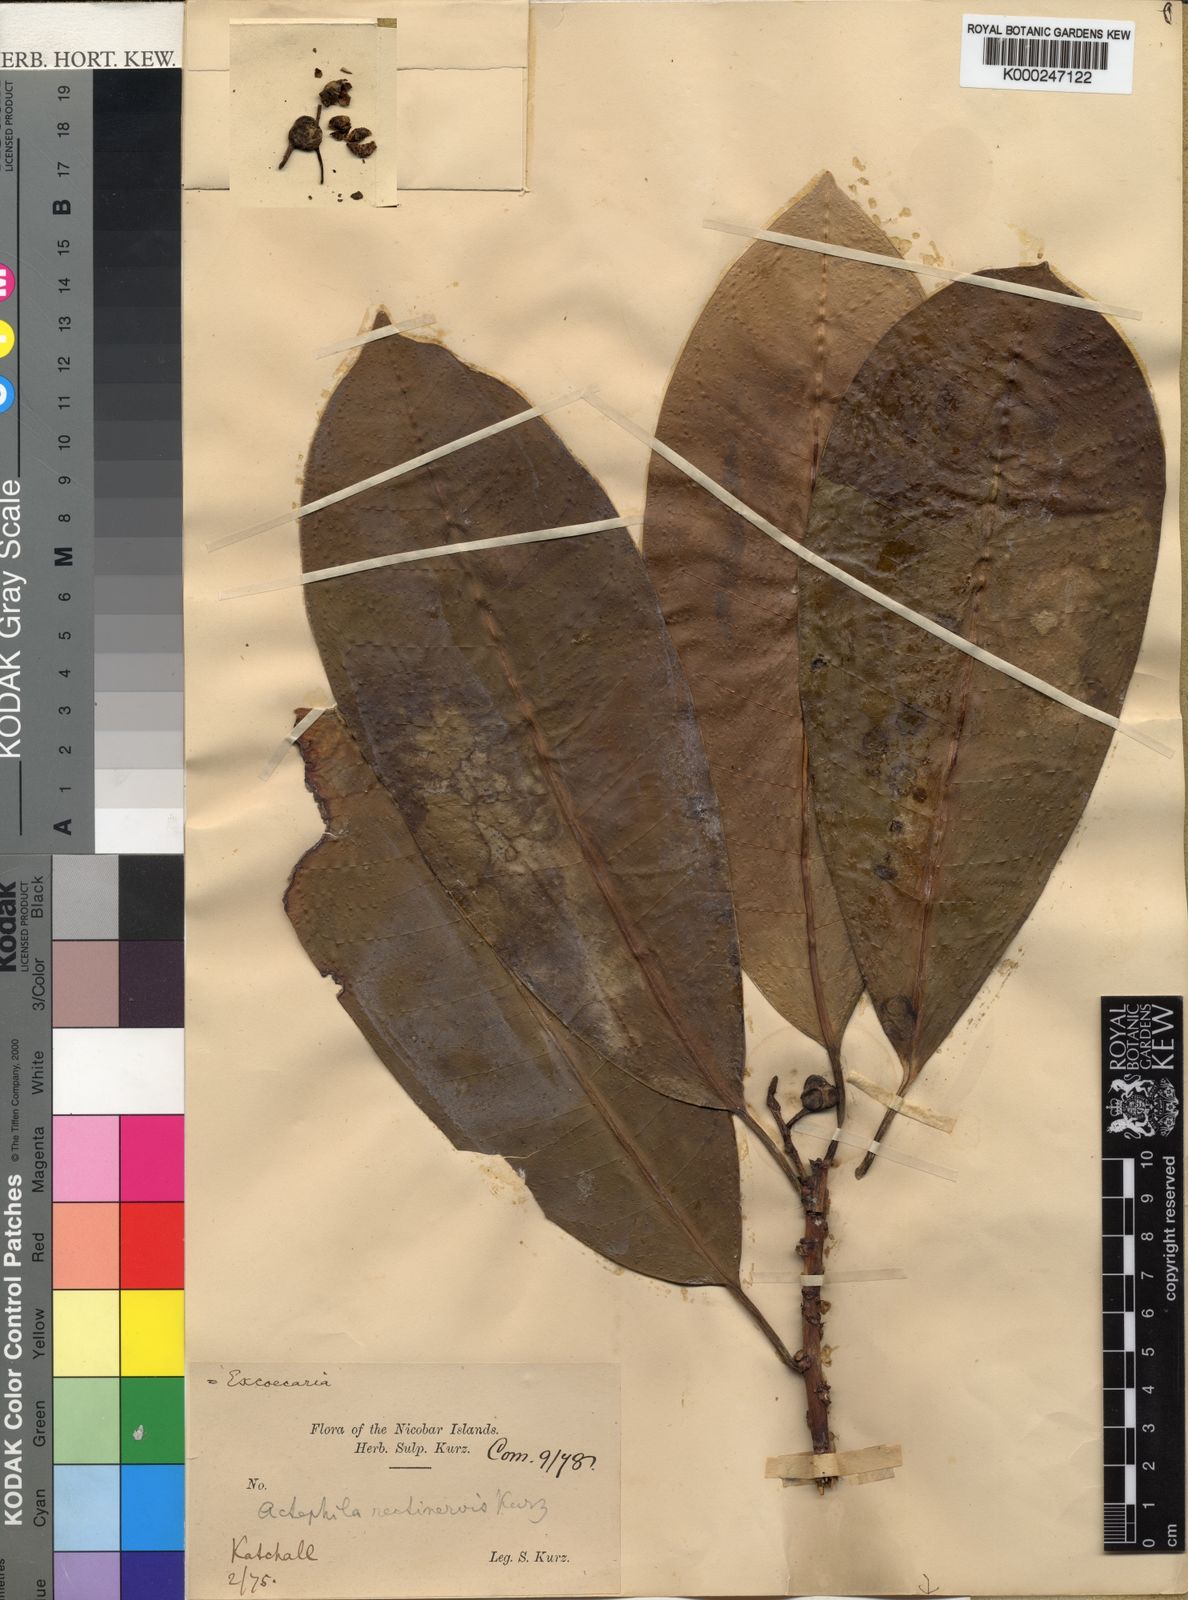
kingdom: Plantae
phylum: Tracheophyta
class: Magnoliopsida
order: Malpighiales
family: Euphorbiaceae
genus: Excoecaria
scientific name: Excoecaria
